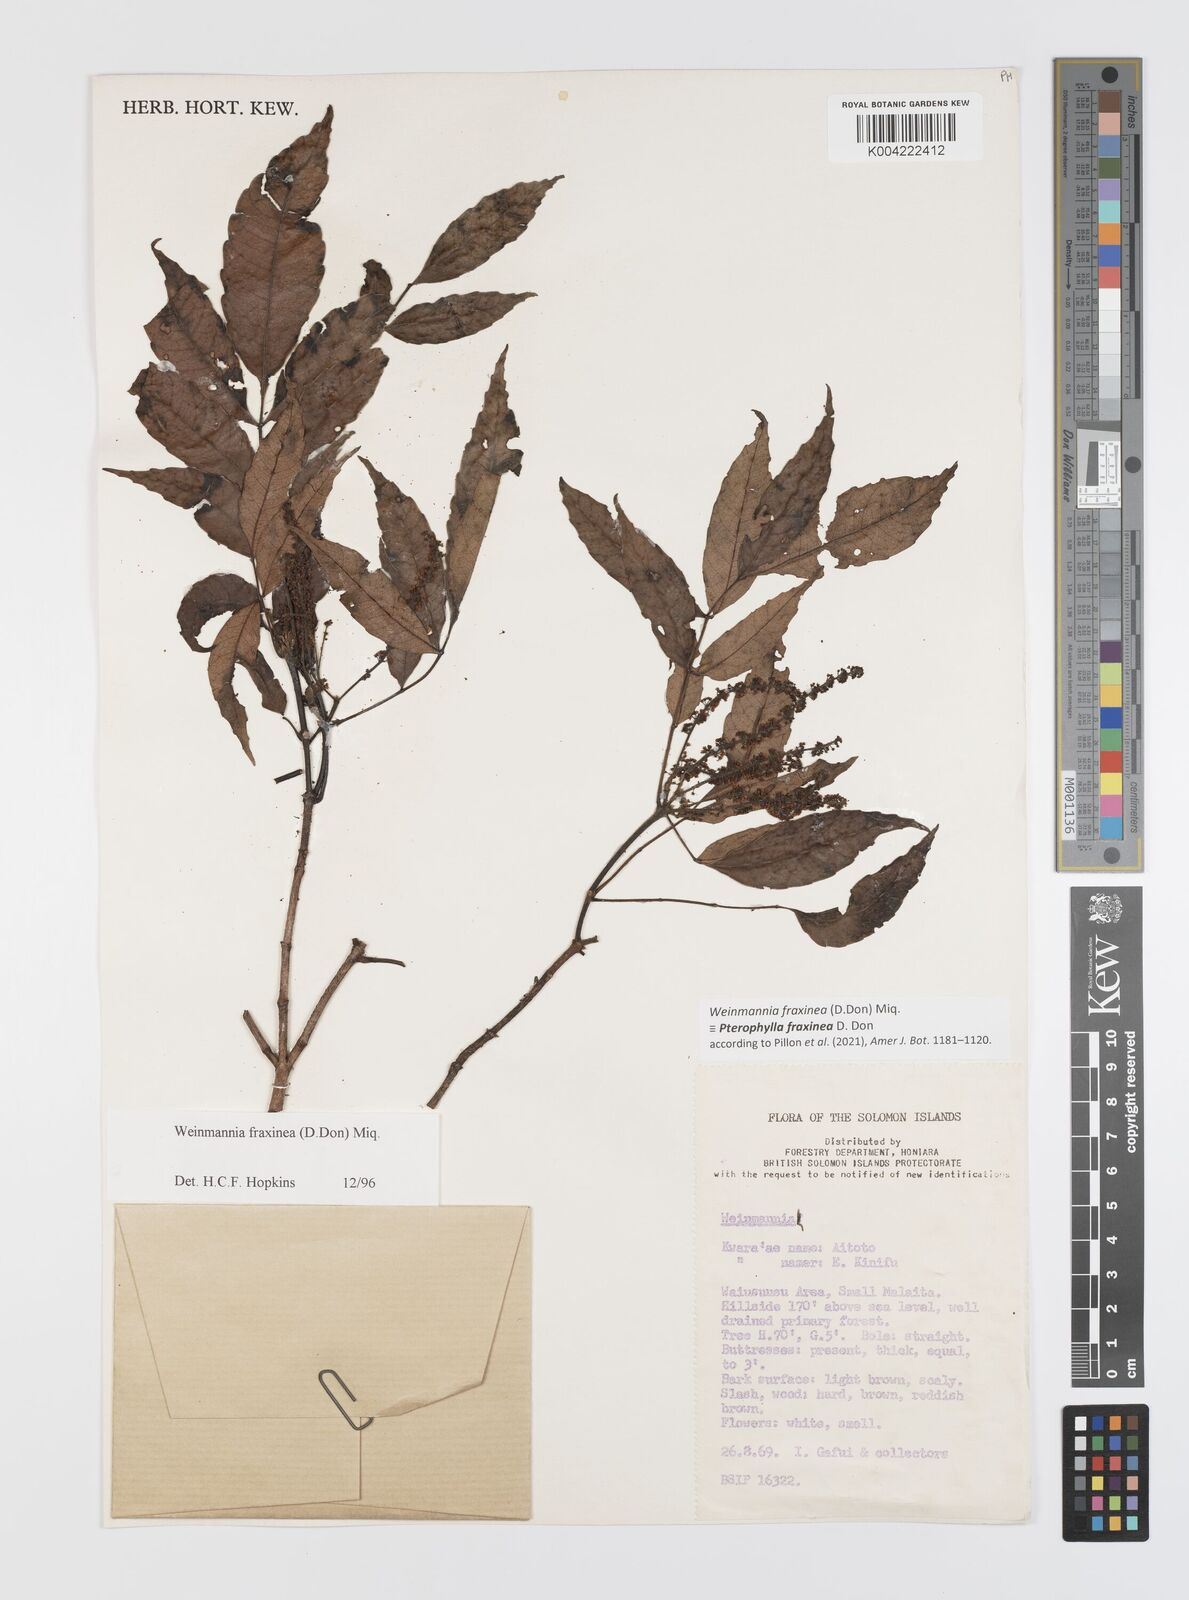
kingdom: Plantae
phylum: Tracheophyta
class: Magnoliopsida
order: Oxalidales
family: Cunoniaceae
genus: Pterophylla
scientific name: Pterophylla fraxinea
